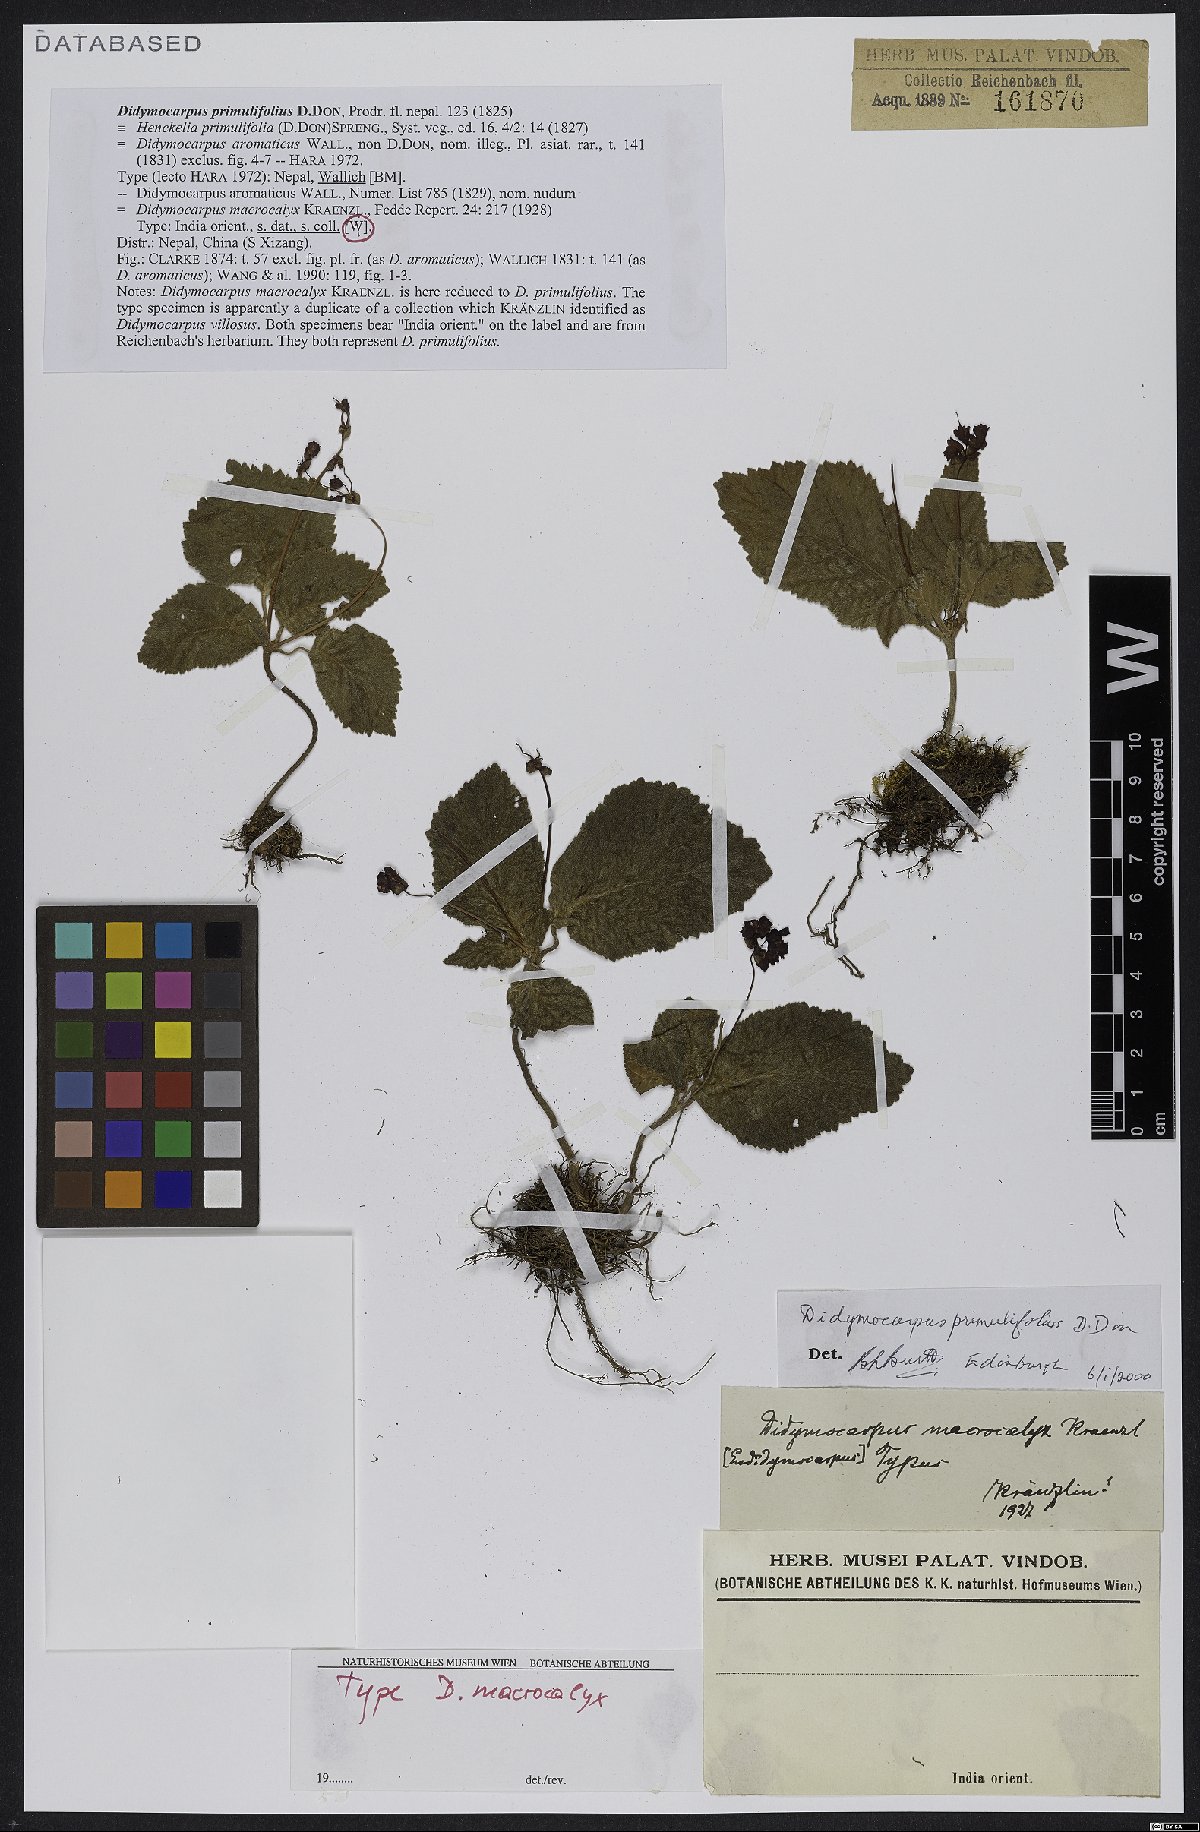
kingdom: Plantae
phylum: Tracheophyta
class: Magnoliopsida
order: Lamiales
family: Gesneriaceae
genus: Didymocarpus
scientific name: Didymocarpus primulifolius
